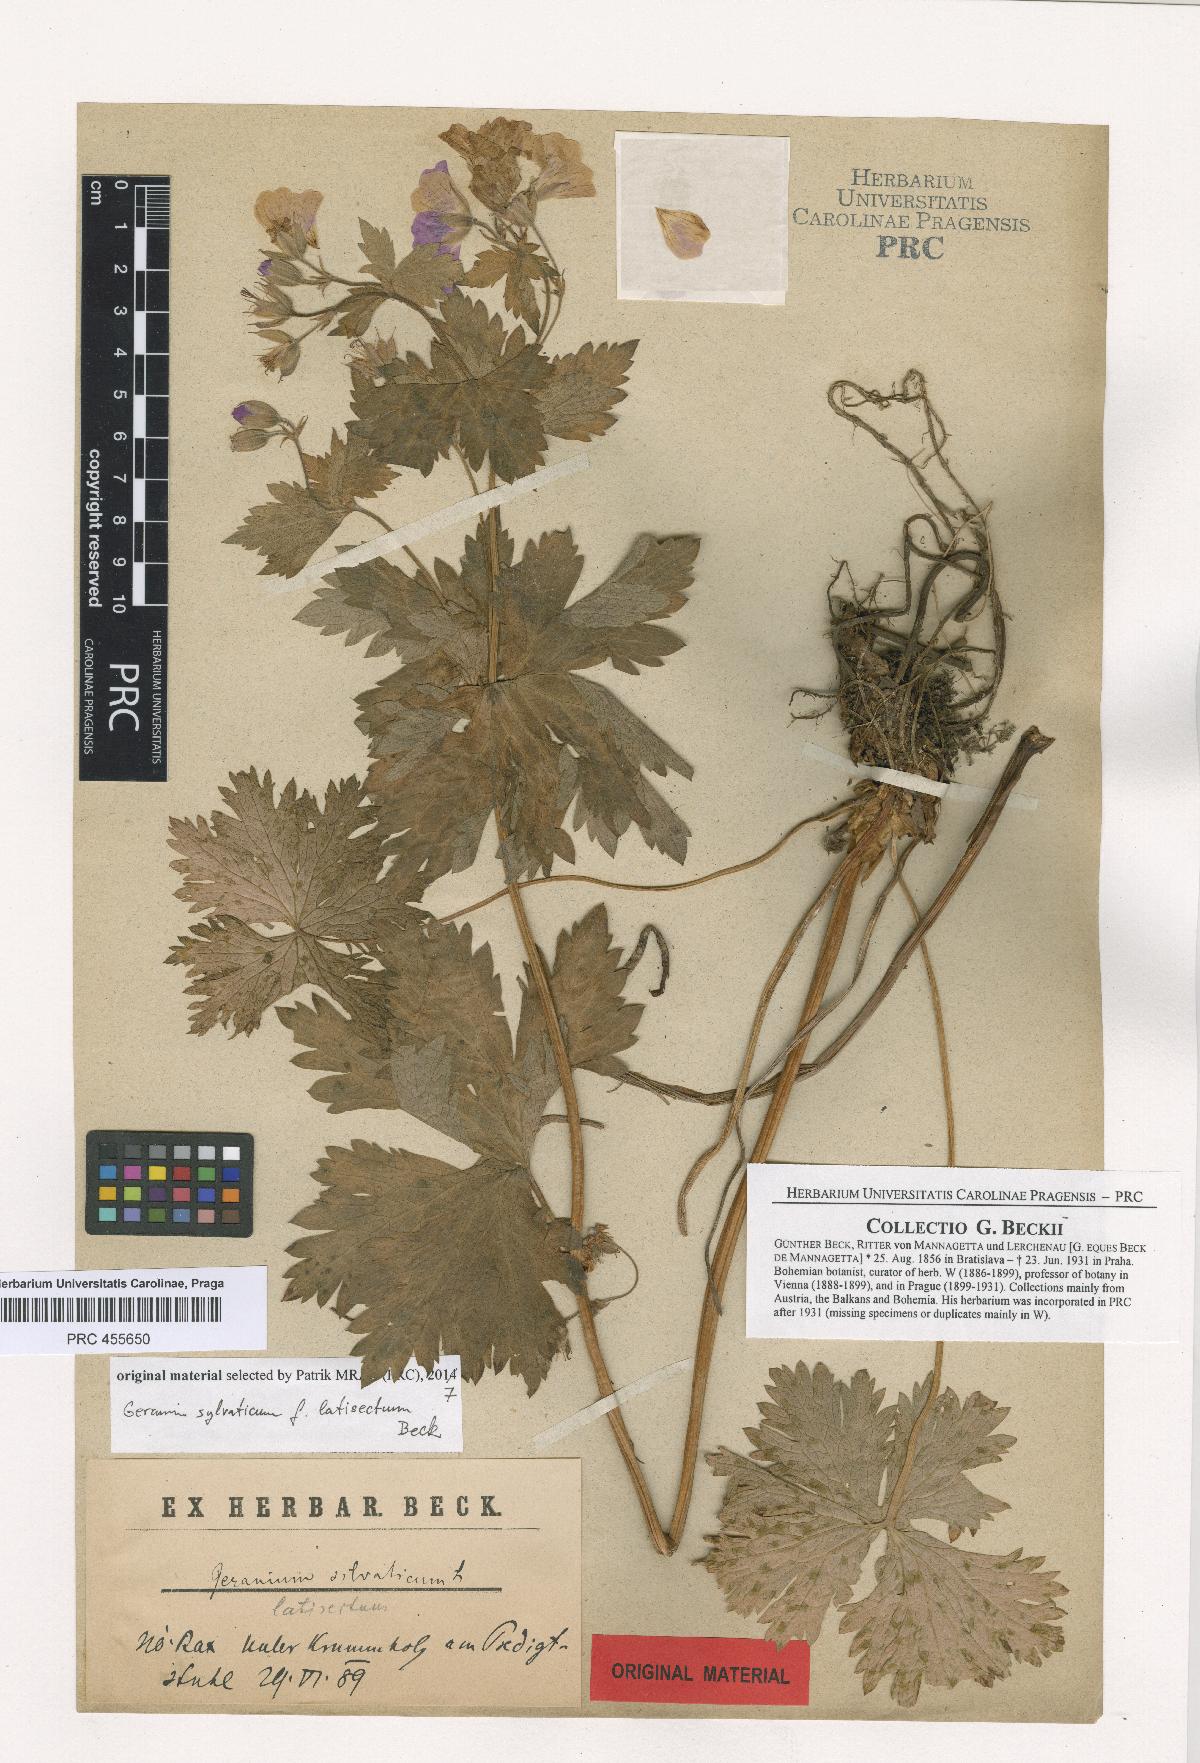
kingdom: Plantae
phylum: Tracheophyta
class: Magnoliopsida
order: Geraniales
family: Geraniaceae
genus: Geranium
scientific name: Geranium sylvaticum
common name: Wood crane's-bill
